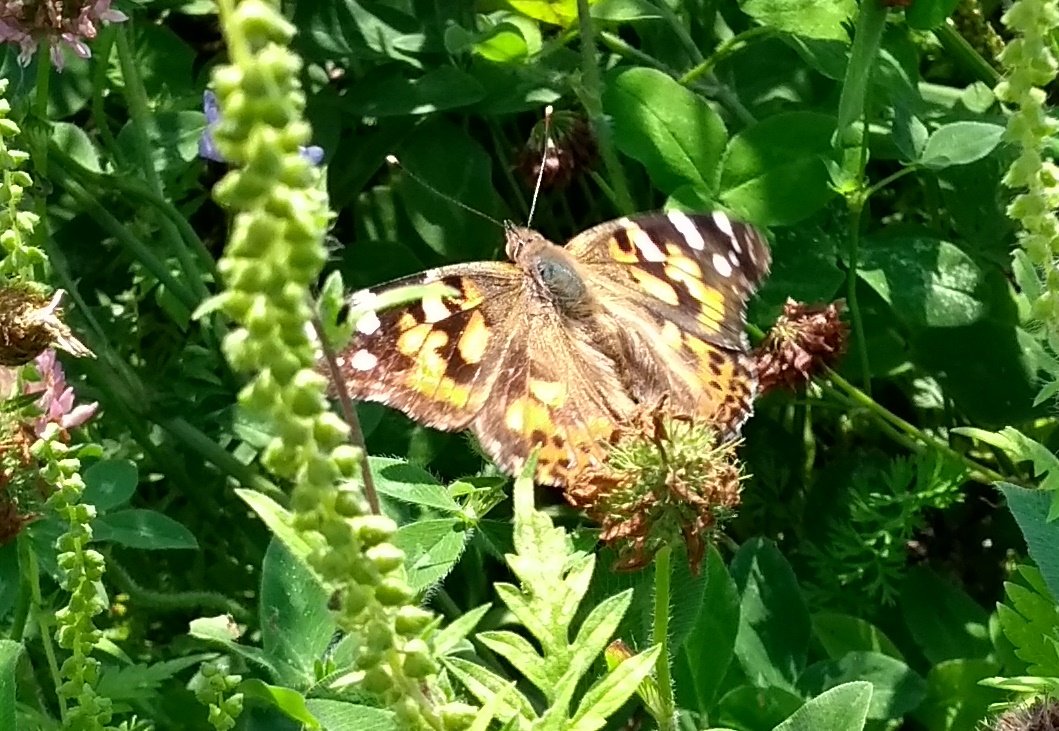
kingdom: Animalia
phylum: Arthropoda
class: Insecta
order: Lepidoptera
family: Nymphalidae
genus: Vanessa
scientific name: Vanessa cardui
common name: Painted Lady
